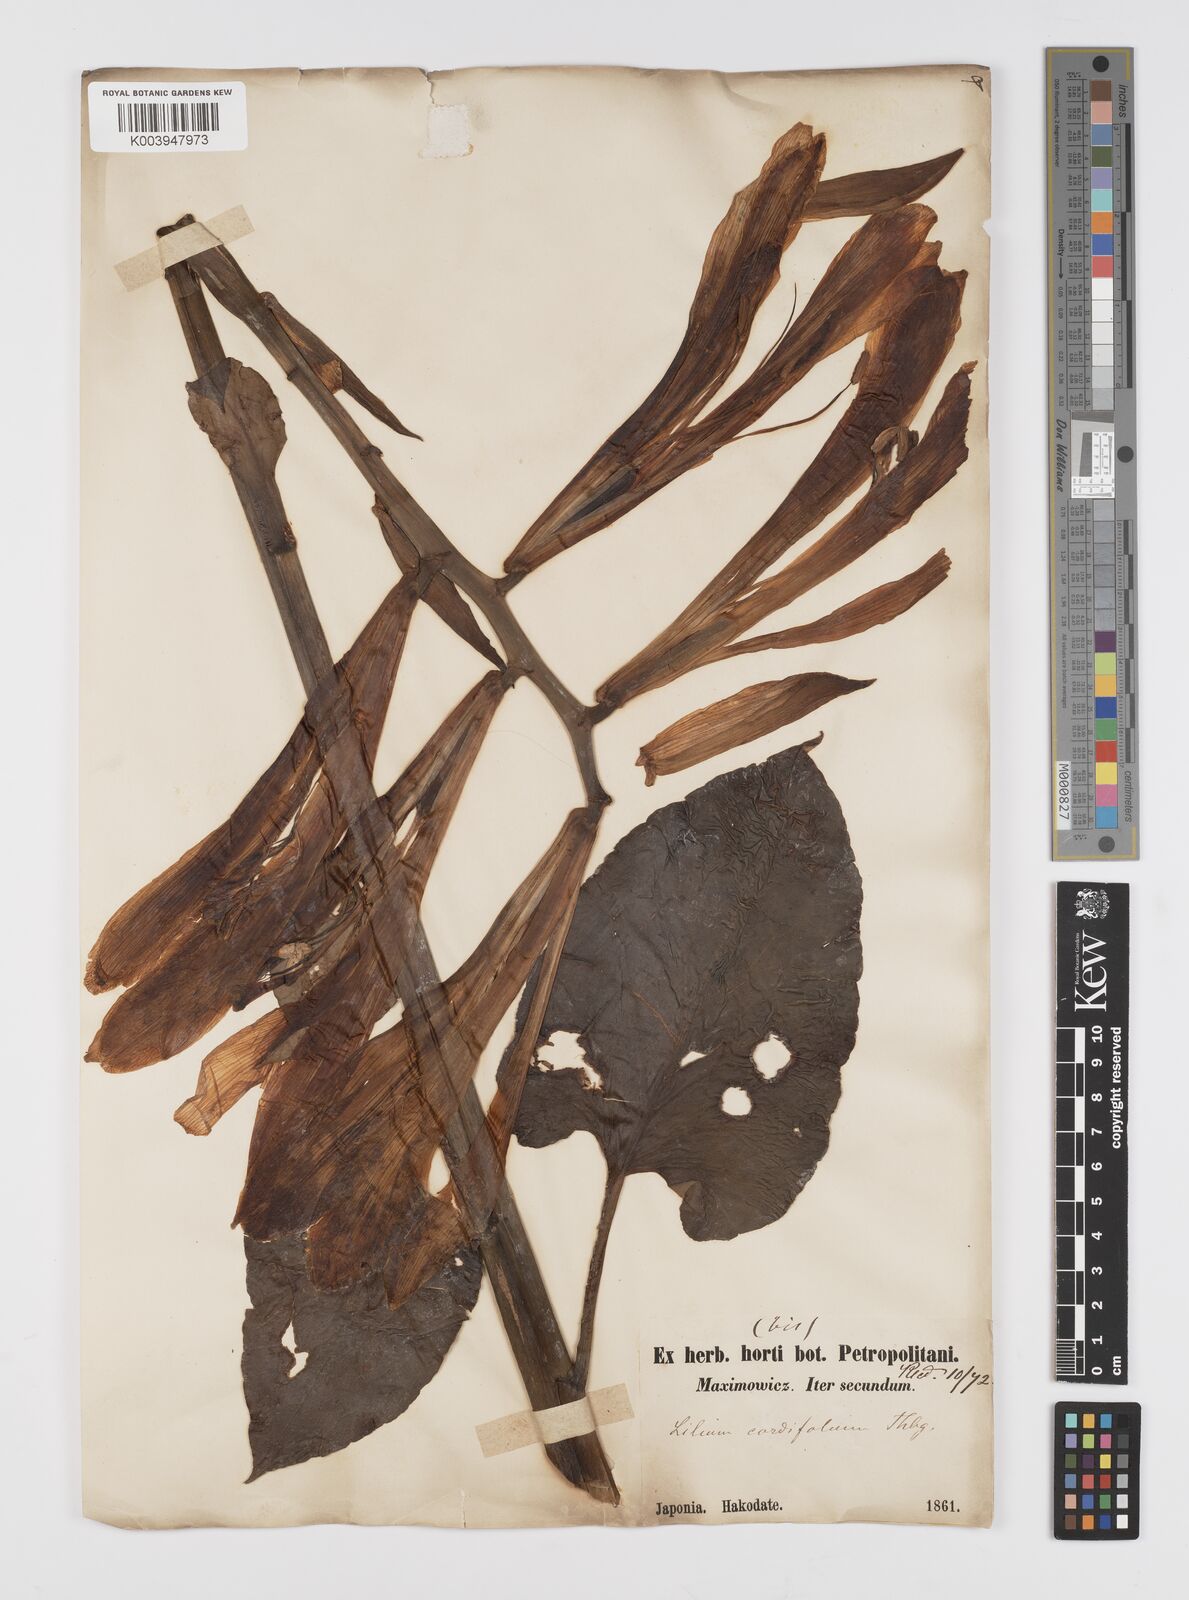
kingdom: Plantae
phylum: Tracheophyta
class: Liliopsida
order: Liliales
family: Liliaceae
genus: Cardiocrinum
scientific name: Cardiocrinum
